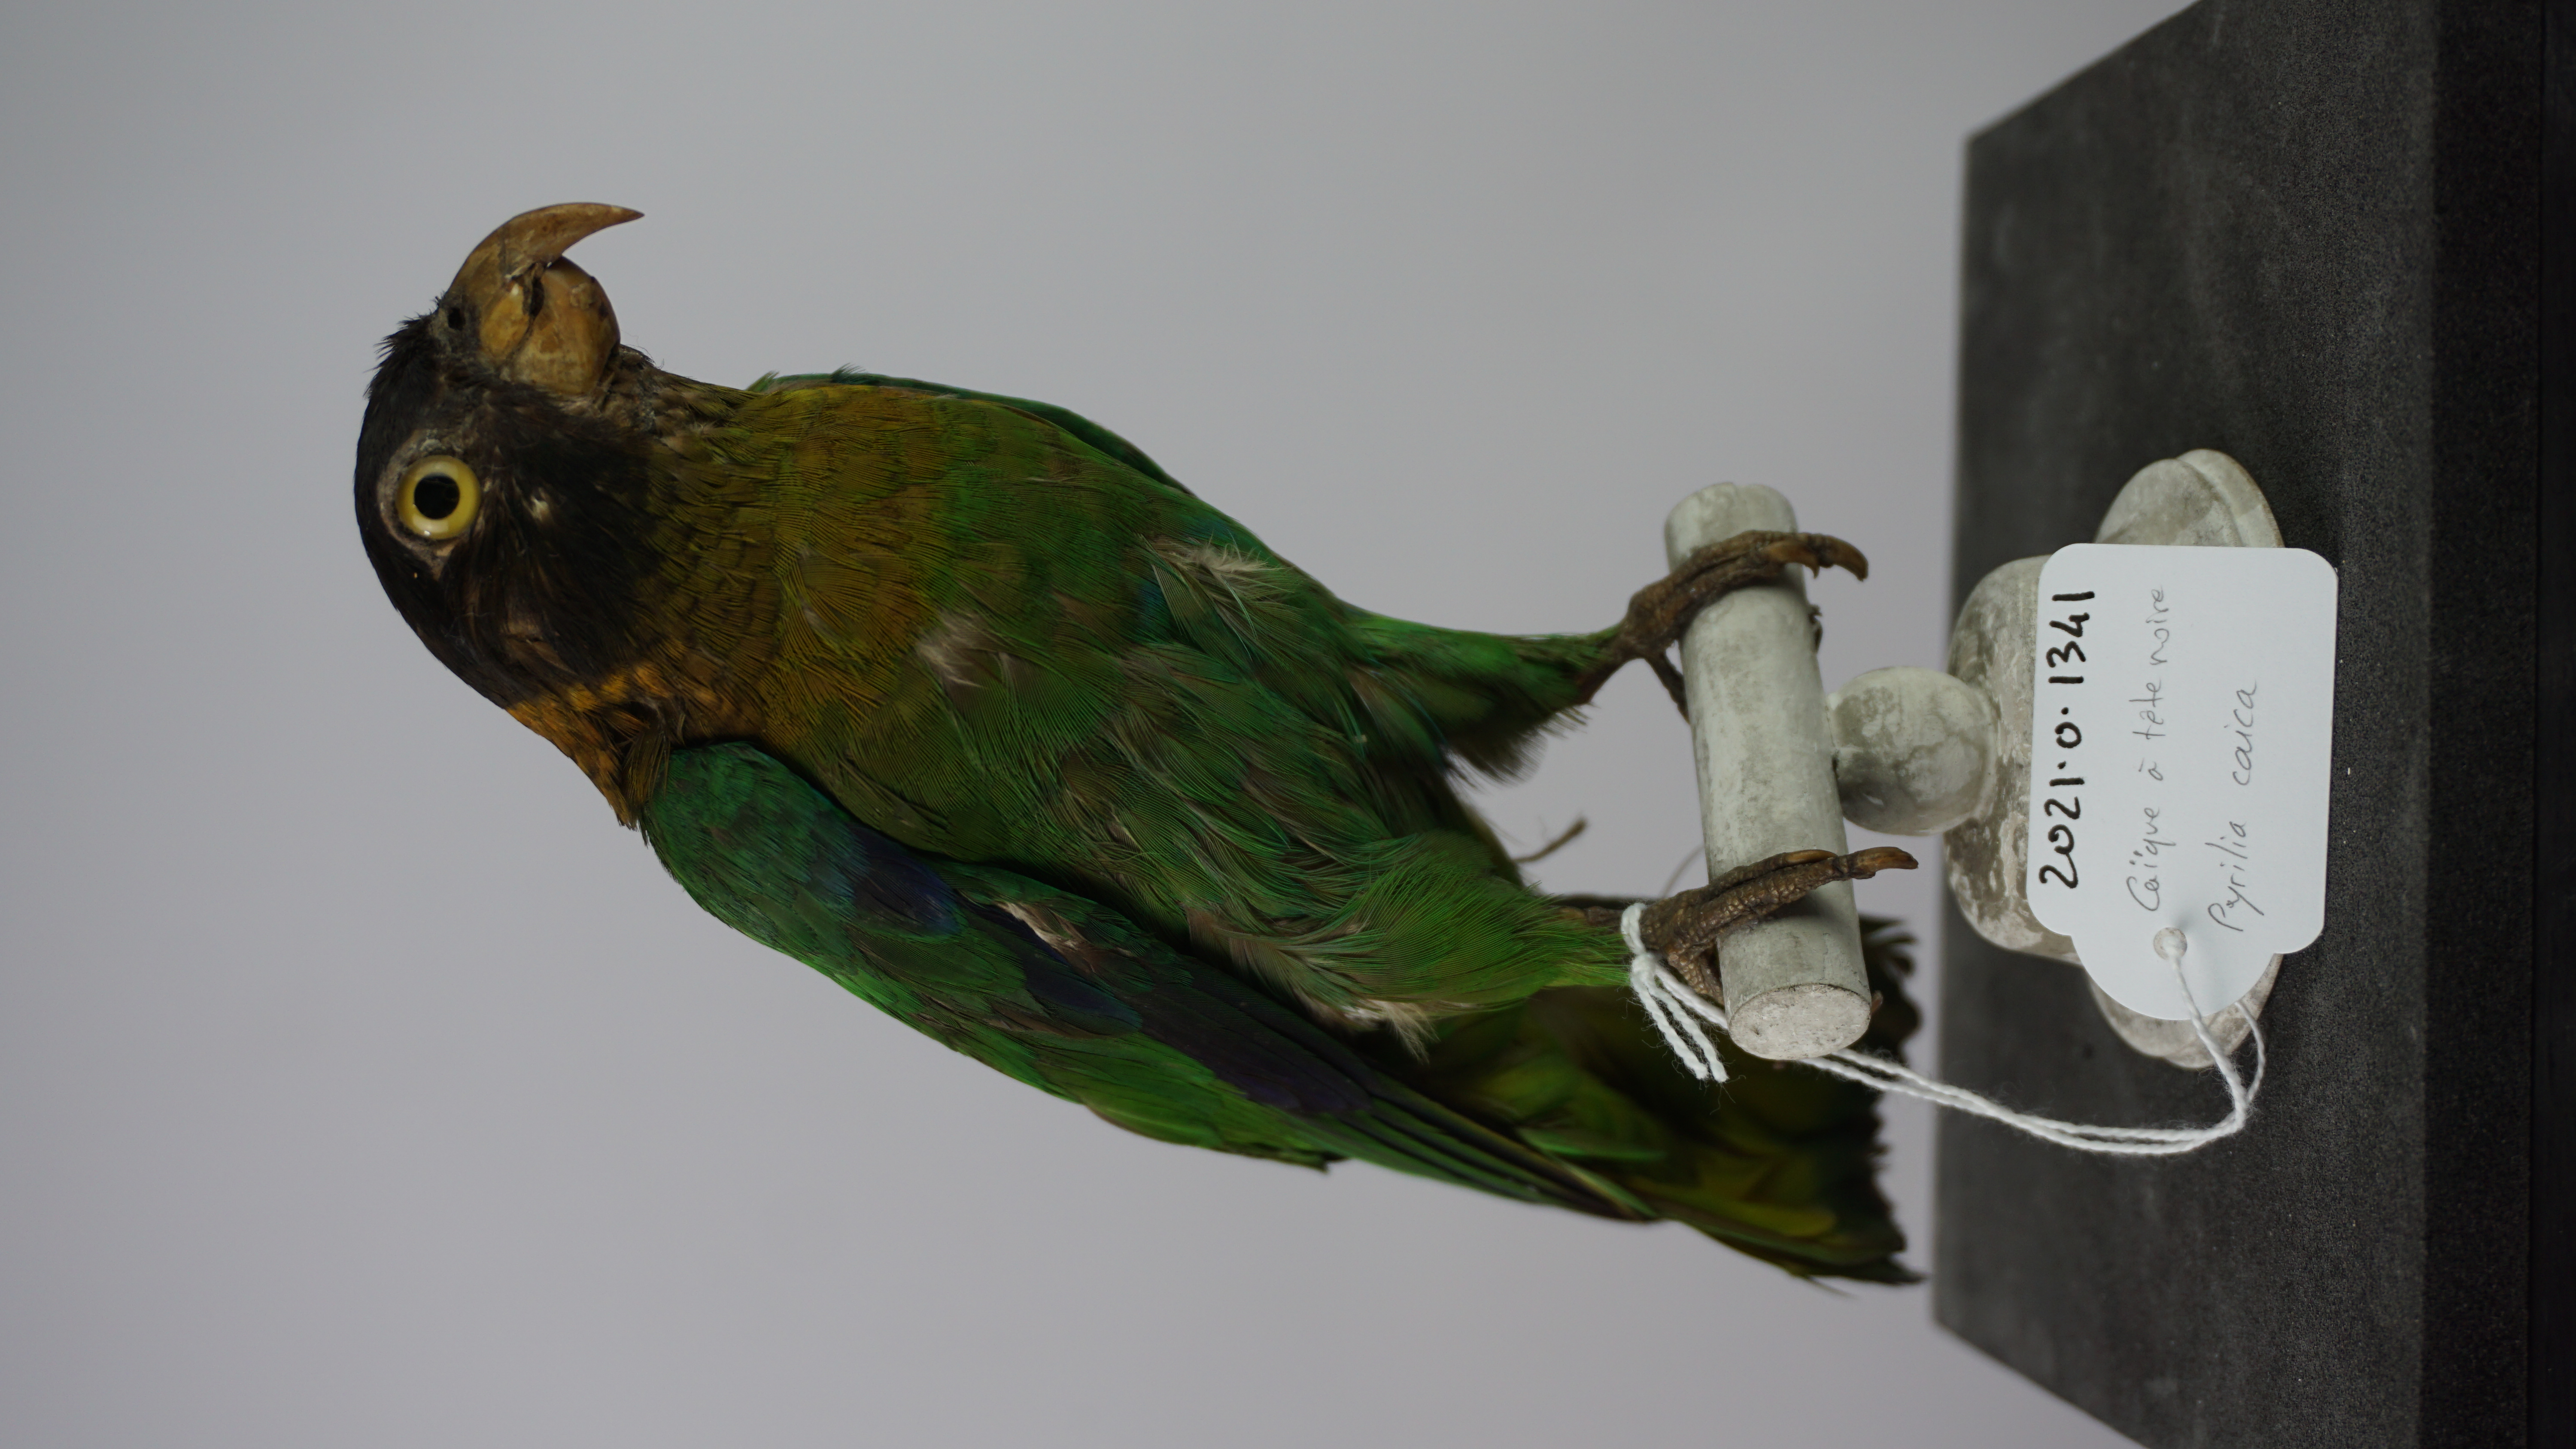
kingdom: Animalia
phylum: Chordata
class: Aves
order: Psittaciformes
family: Psittacidae
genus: Pionopsitta
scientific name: Pionopsitta caica
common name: Caica parrot
